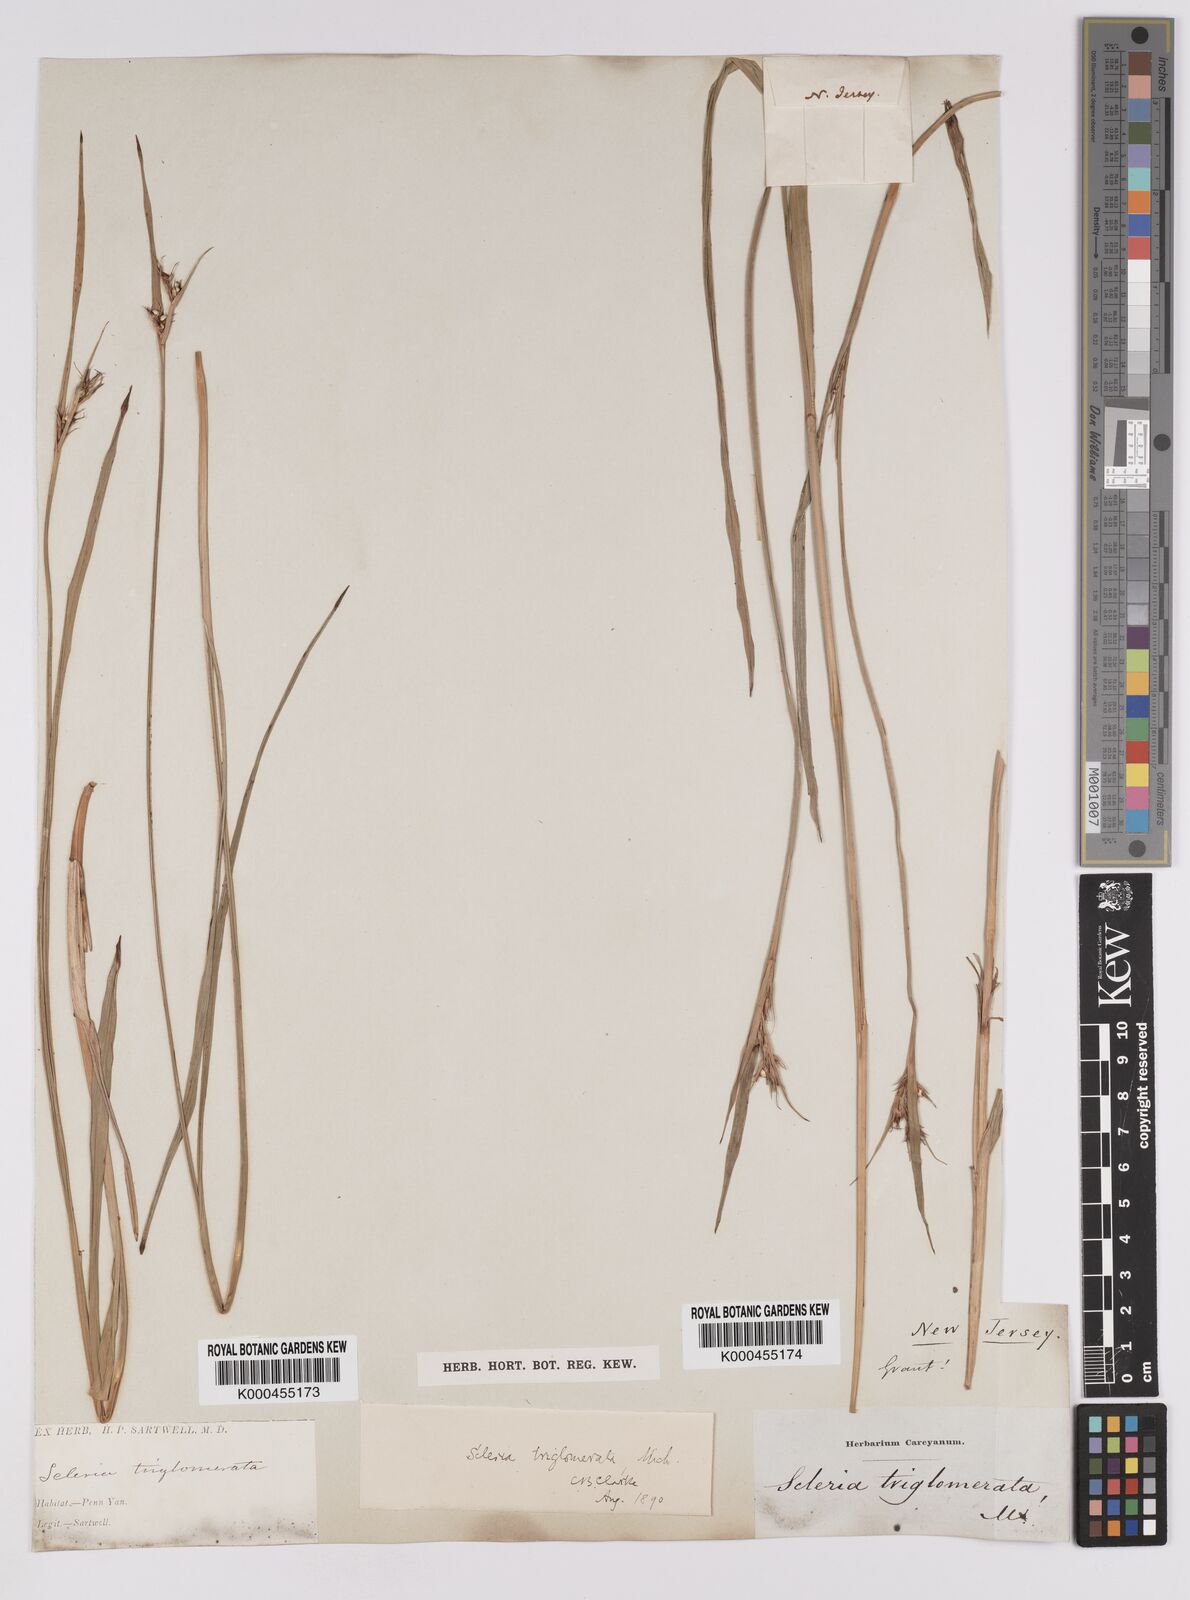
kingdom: Plantae
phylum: Tracheophyta
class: Liliopsida
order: Poales
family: Cyperaceae
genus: Scleria
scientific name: Scleria triglomerata
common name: Whip nutrush
